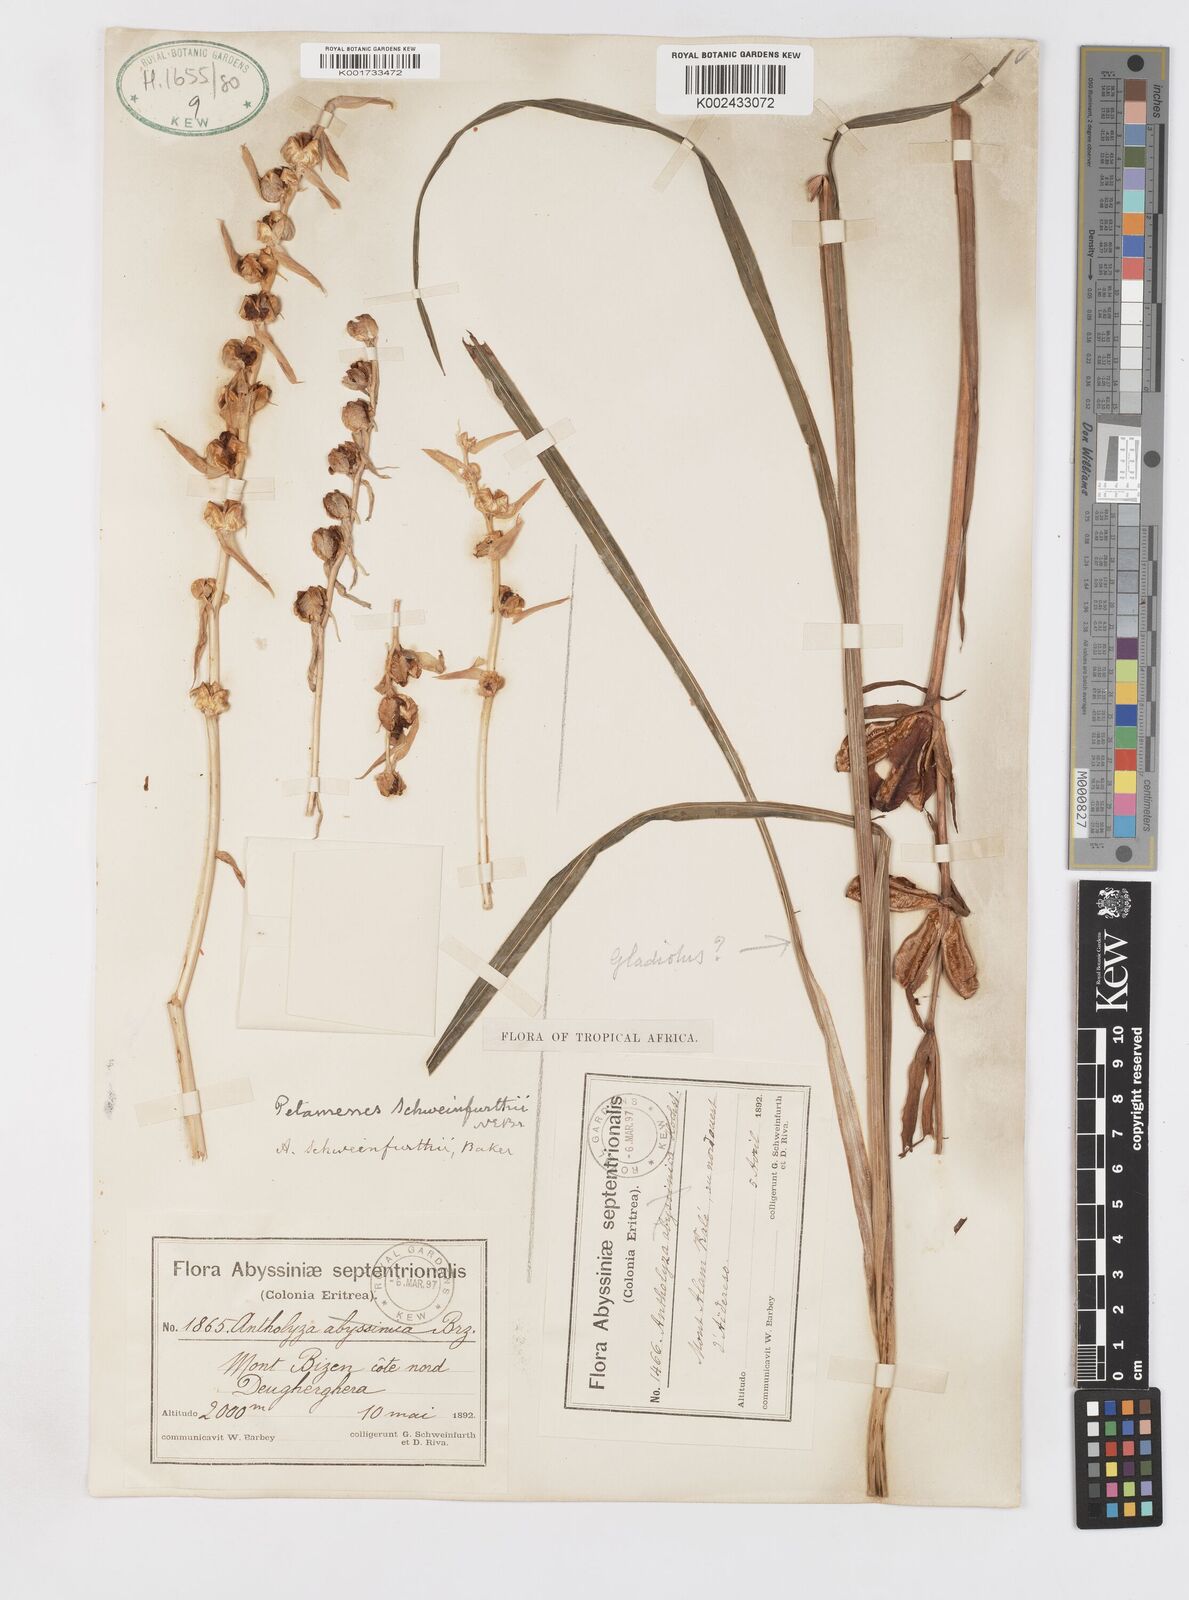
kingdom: Plantae
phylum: Tracheophyta
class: Liliopsida
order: Asparagales
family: Iridaceae
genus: Gladiolus
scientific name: Gladiolus schweinfurthii
